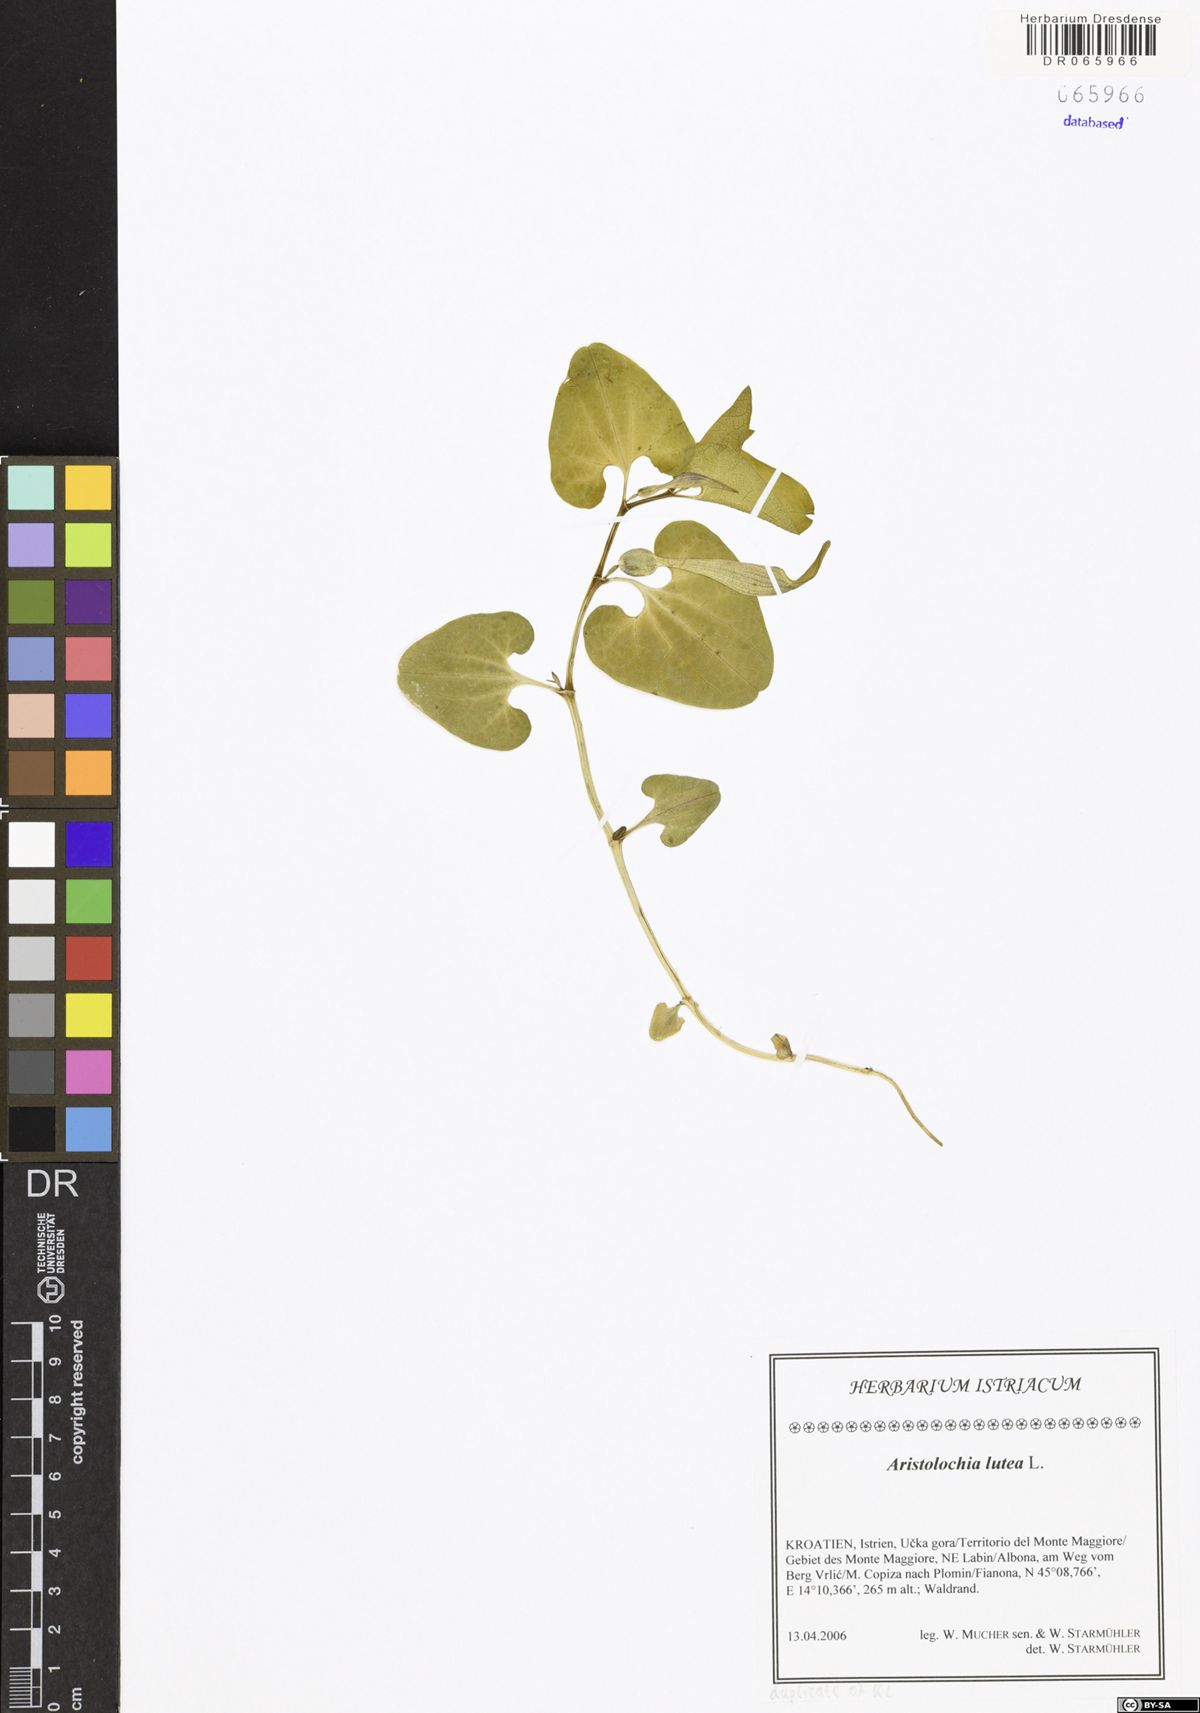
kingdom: Plantae
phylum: Tracheophyta
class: Magnoliopsida
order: Piperales
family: Aristolochiaceae
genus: Aristolochia
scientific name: Aristolochia lutea
